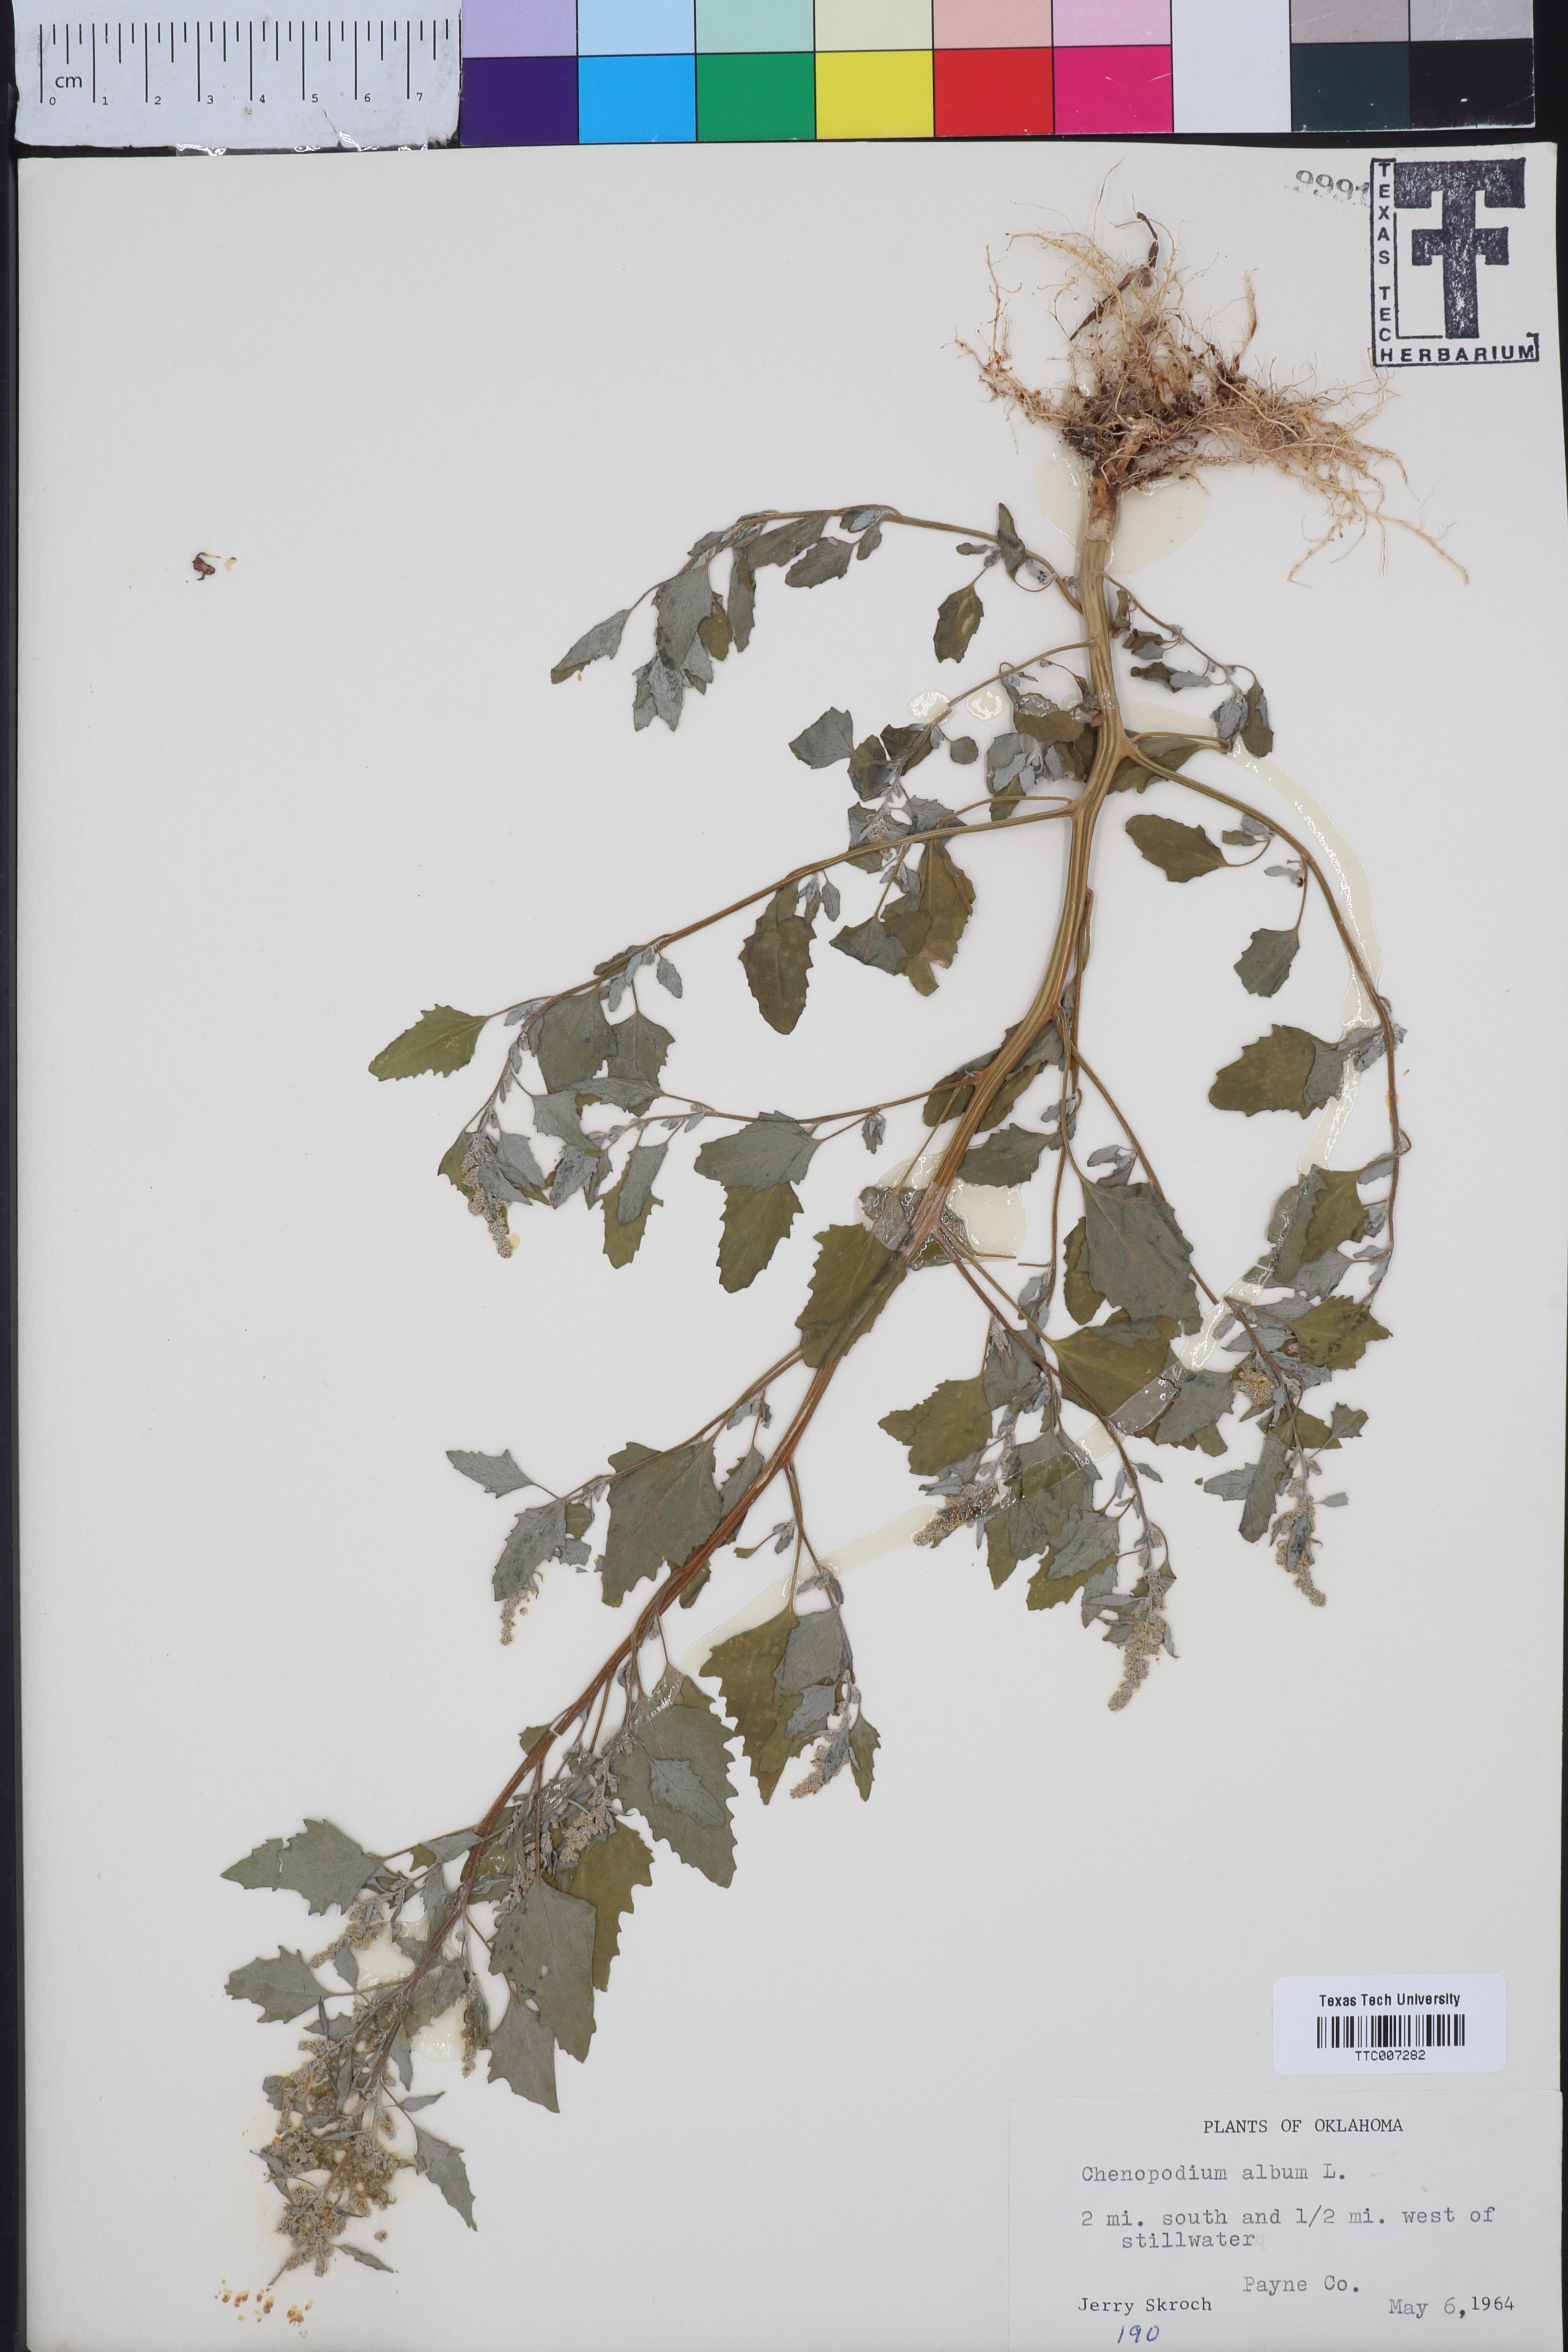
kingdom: Plantae
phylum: Tracheophyta
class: Magnoliopsida
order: Caryophyllales
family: Amaranthaceae
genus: Chenopodium
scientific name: Chenopodium album
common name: Fat-hen
